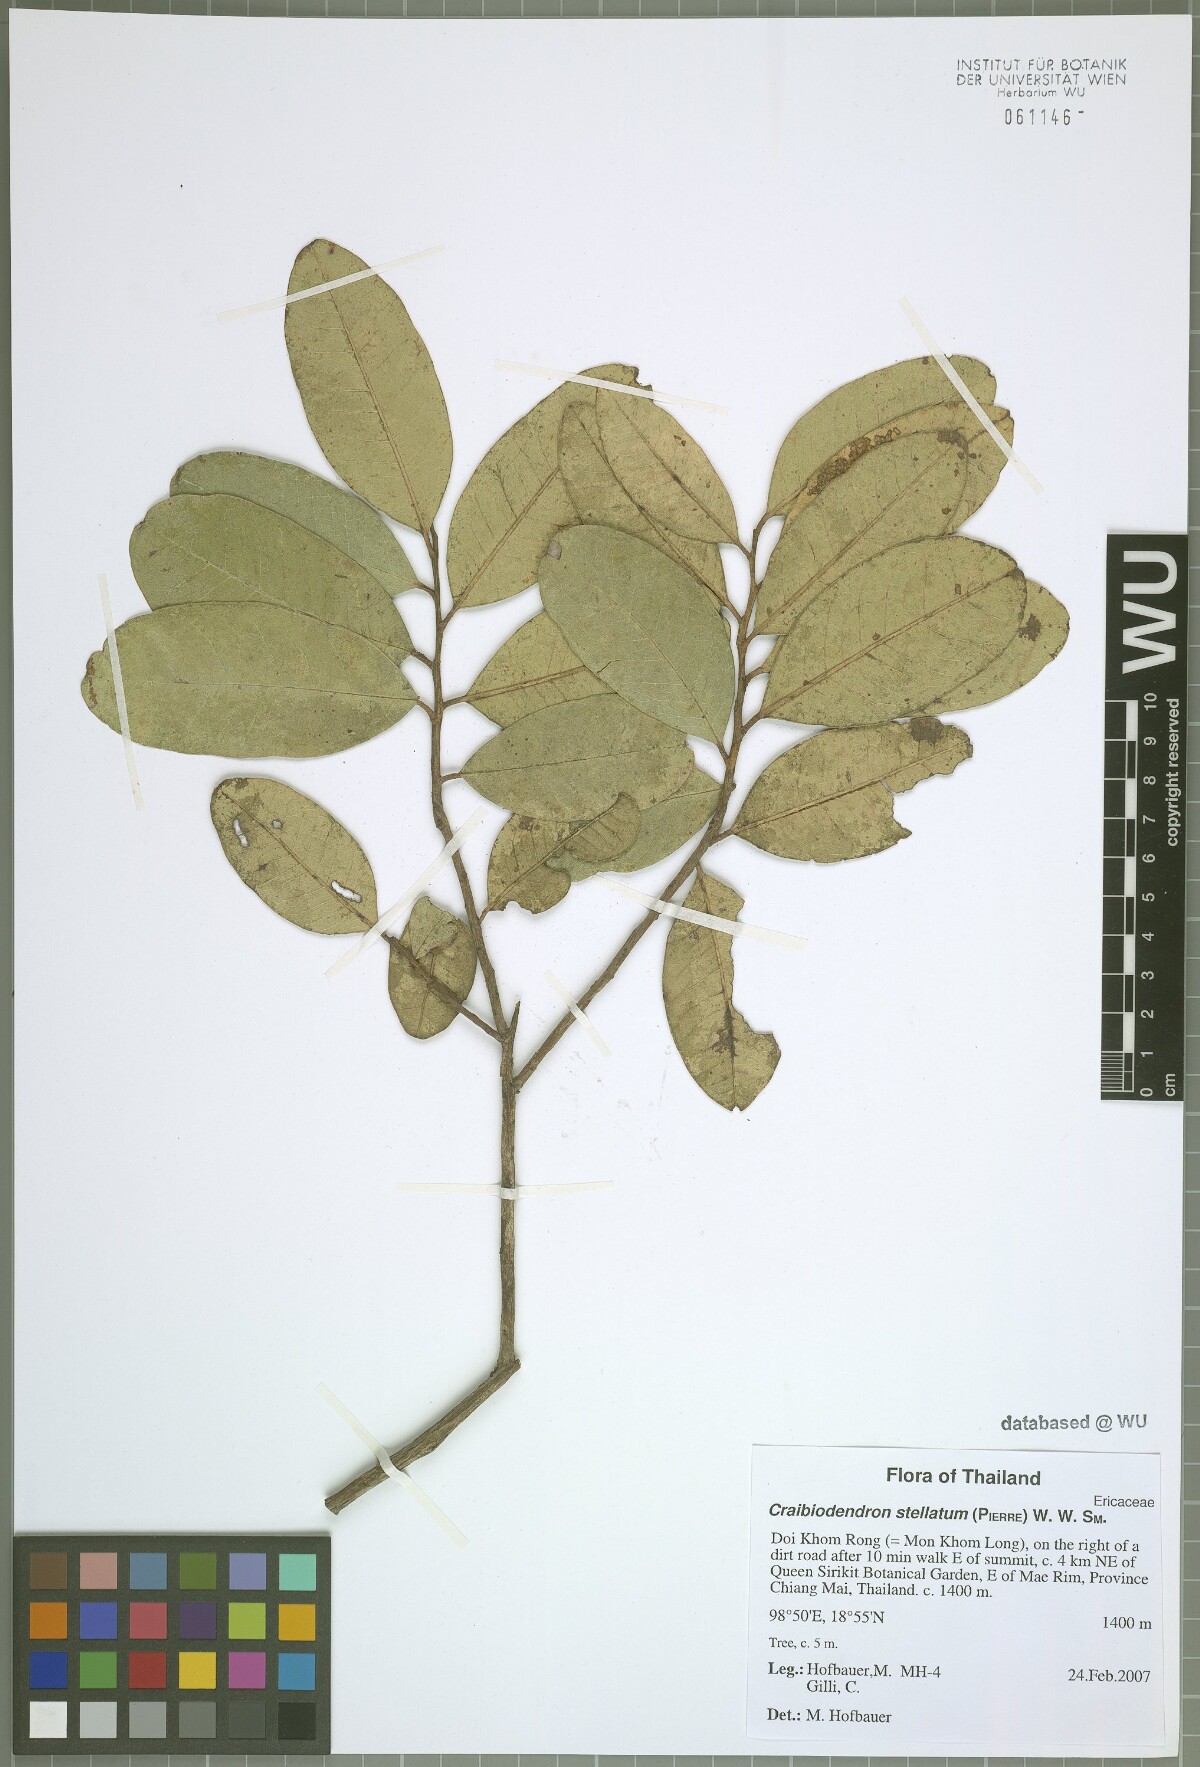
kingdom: Plantae
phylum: Tracheophyta
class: Magnoliopsida
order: Ericales
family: Ericaceae
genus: Craibiodendron
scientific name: Craibiodendron stellatum
